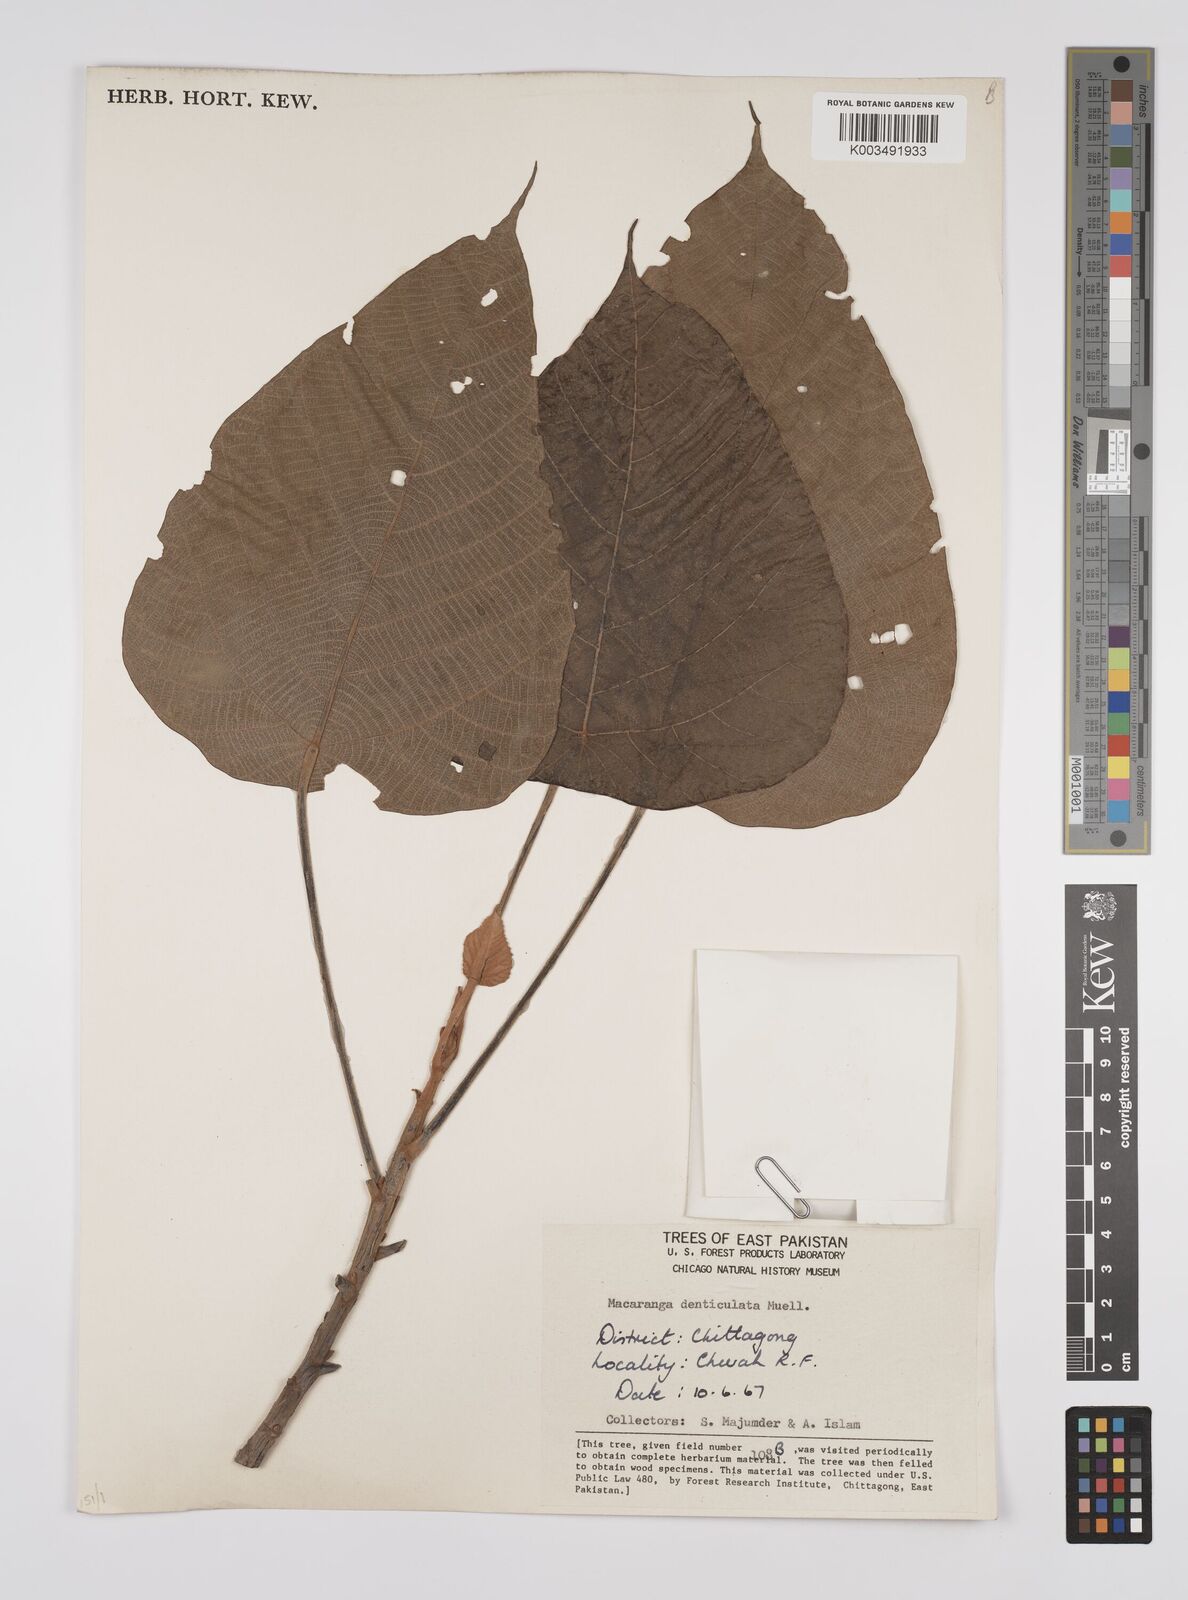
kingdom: Plantae
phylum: Tracheophyta
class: Magnoliopsida
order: Malpighiales
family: Euphorbiaceae
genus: Macaranga
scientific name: Macaranga denticulata
